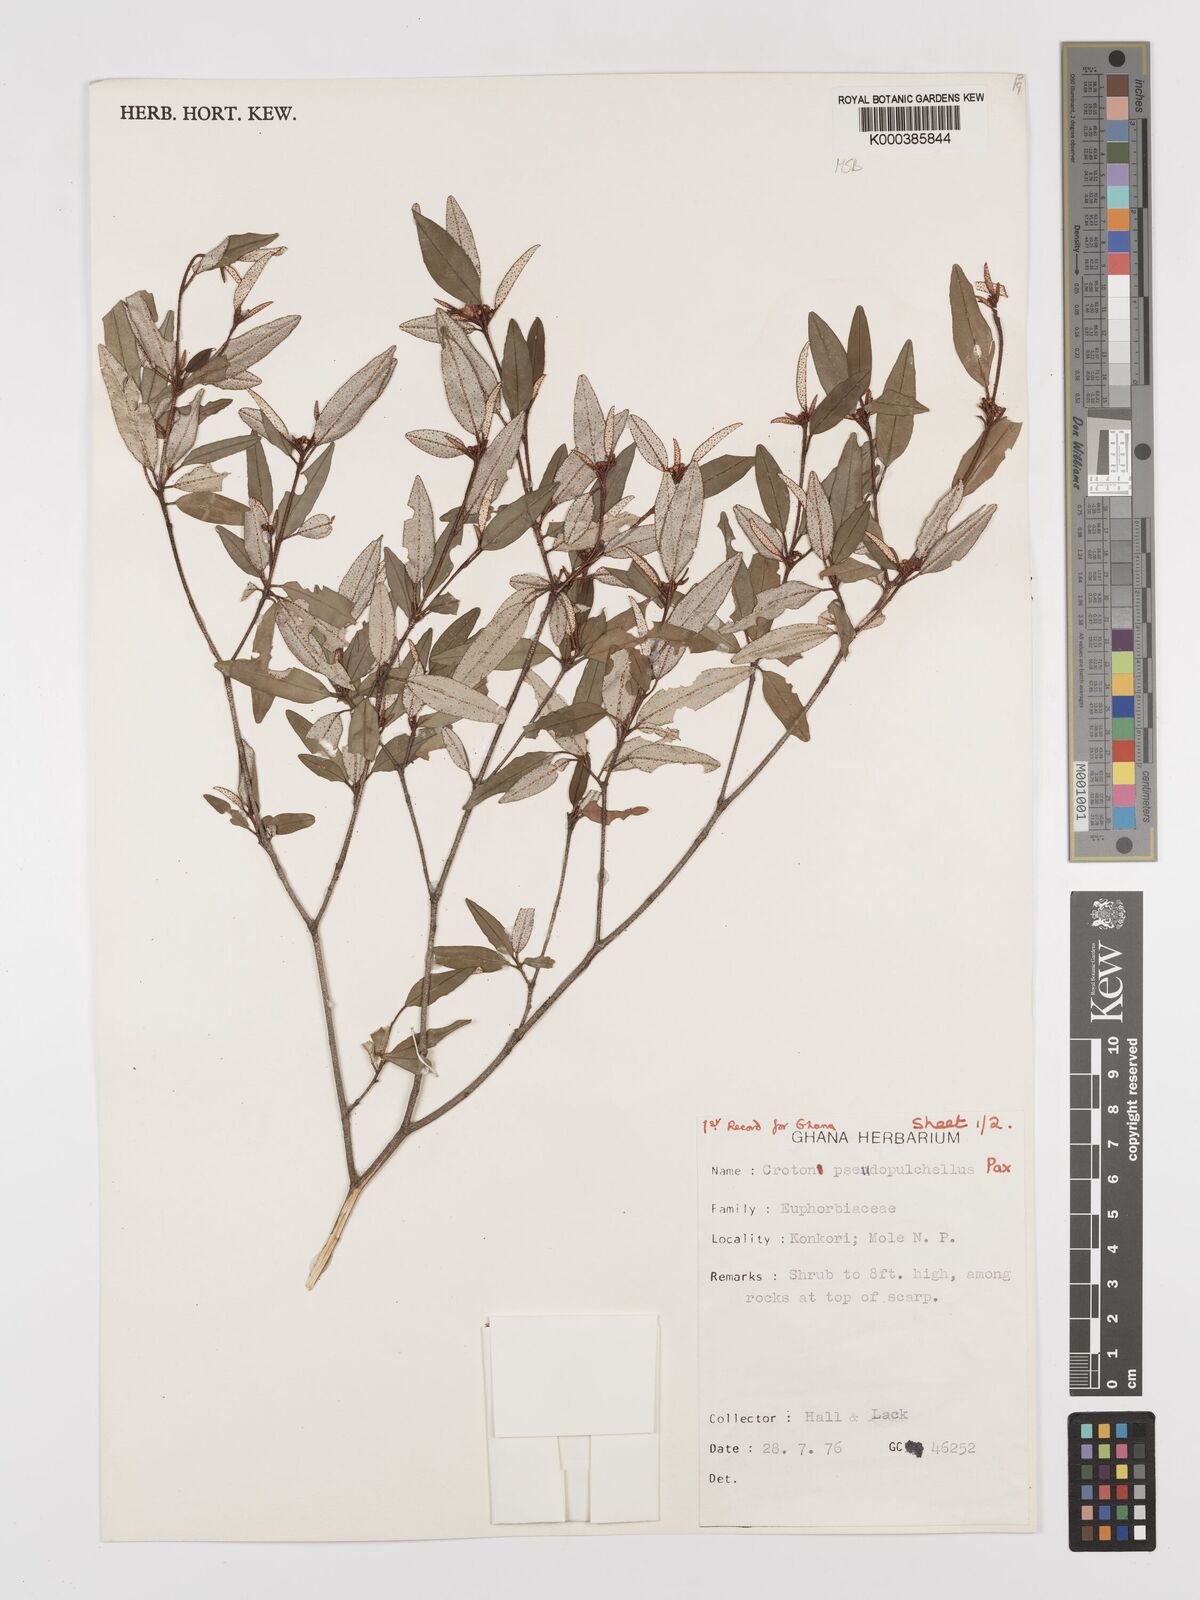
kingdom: Plantae
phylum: Tracheophyta
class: Magnoliopsida
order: Malpighiales
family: Euphorbiaceae
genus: Croton
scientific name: Croton pseudopulchellus
